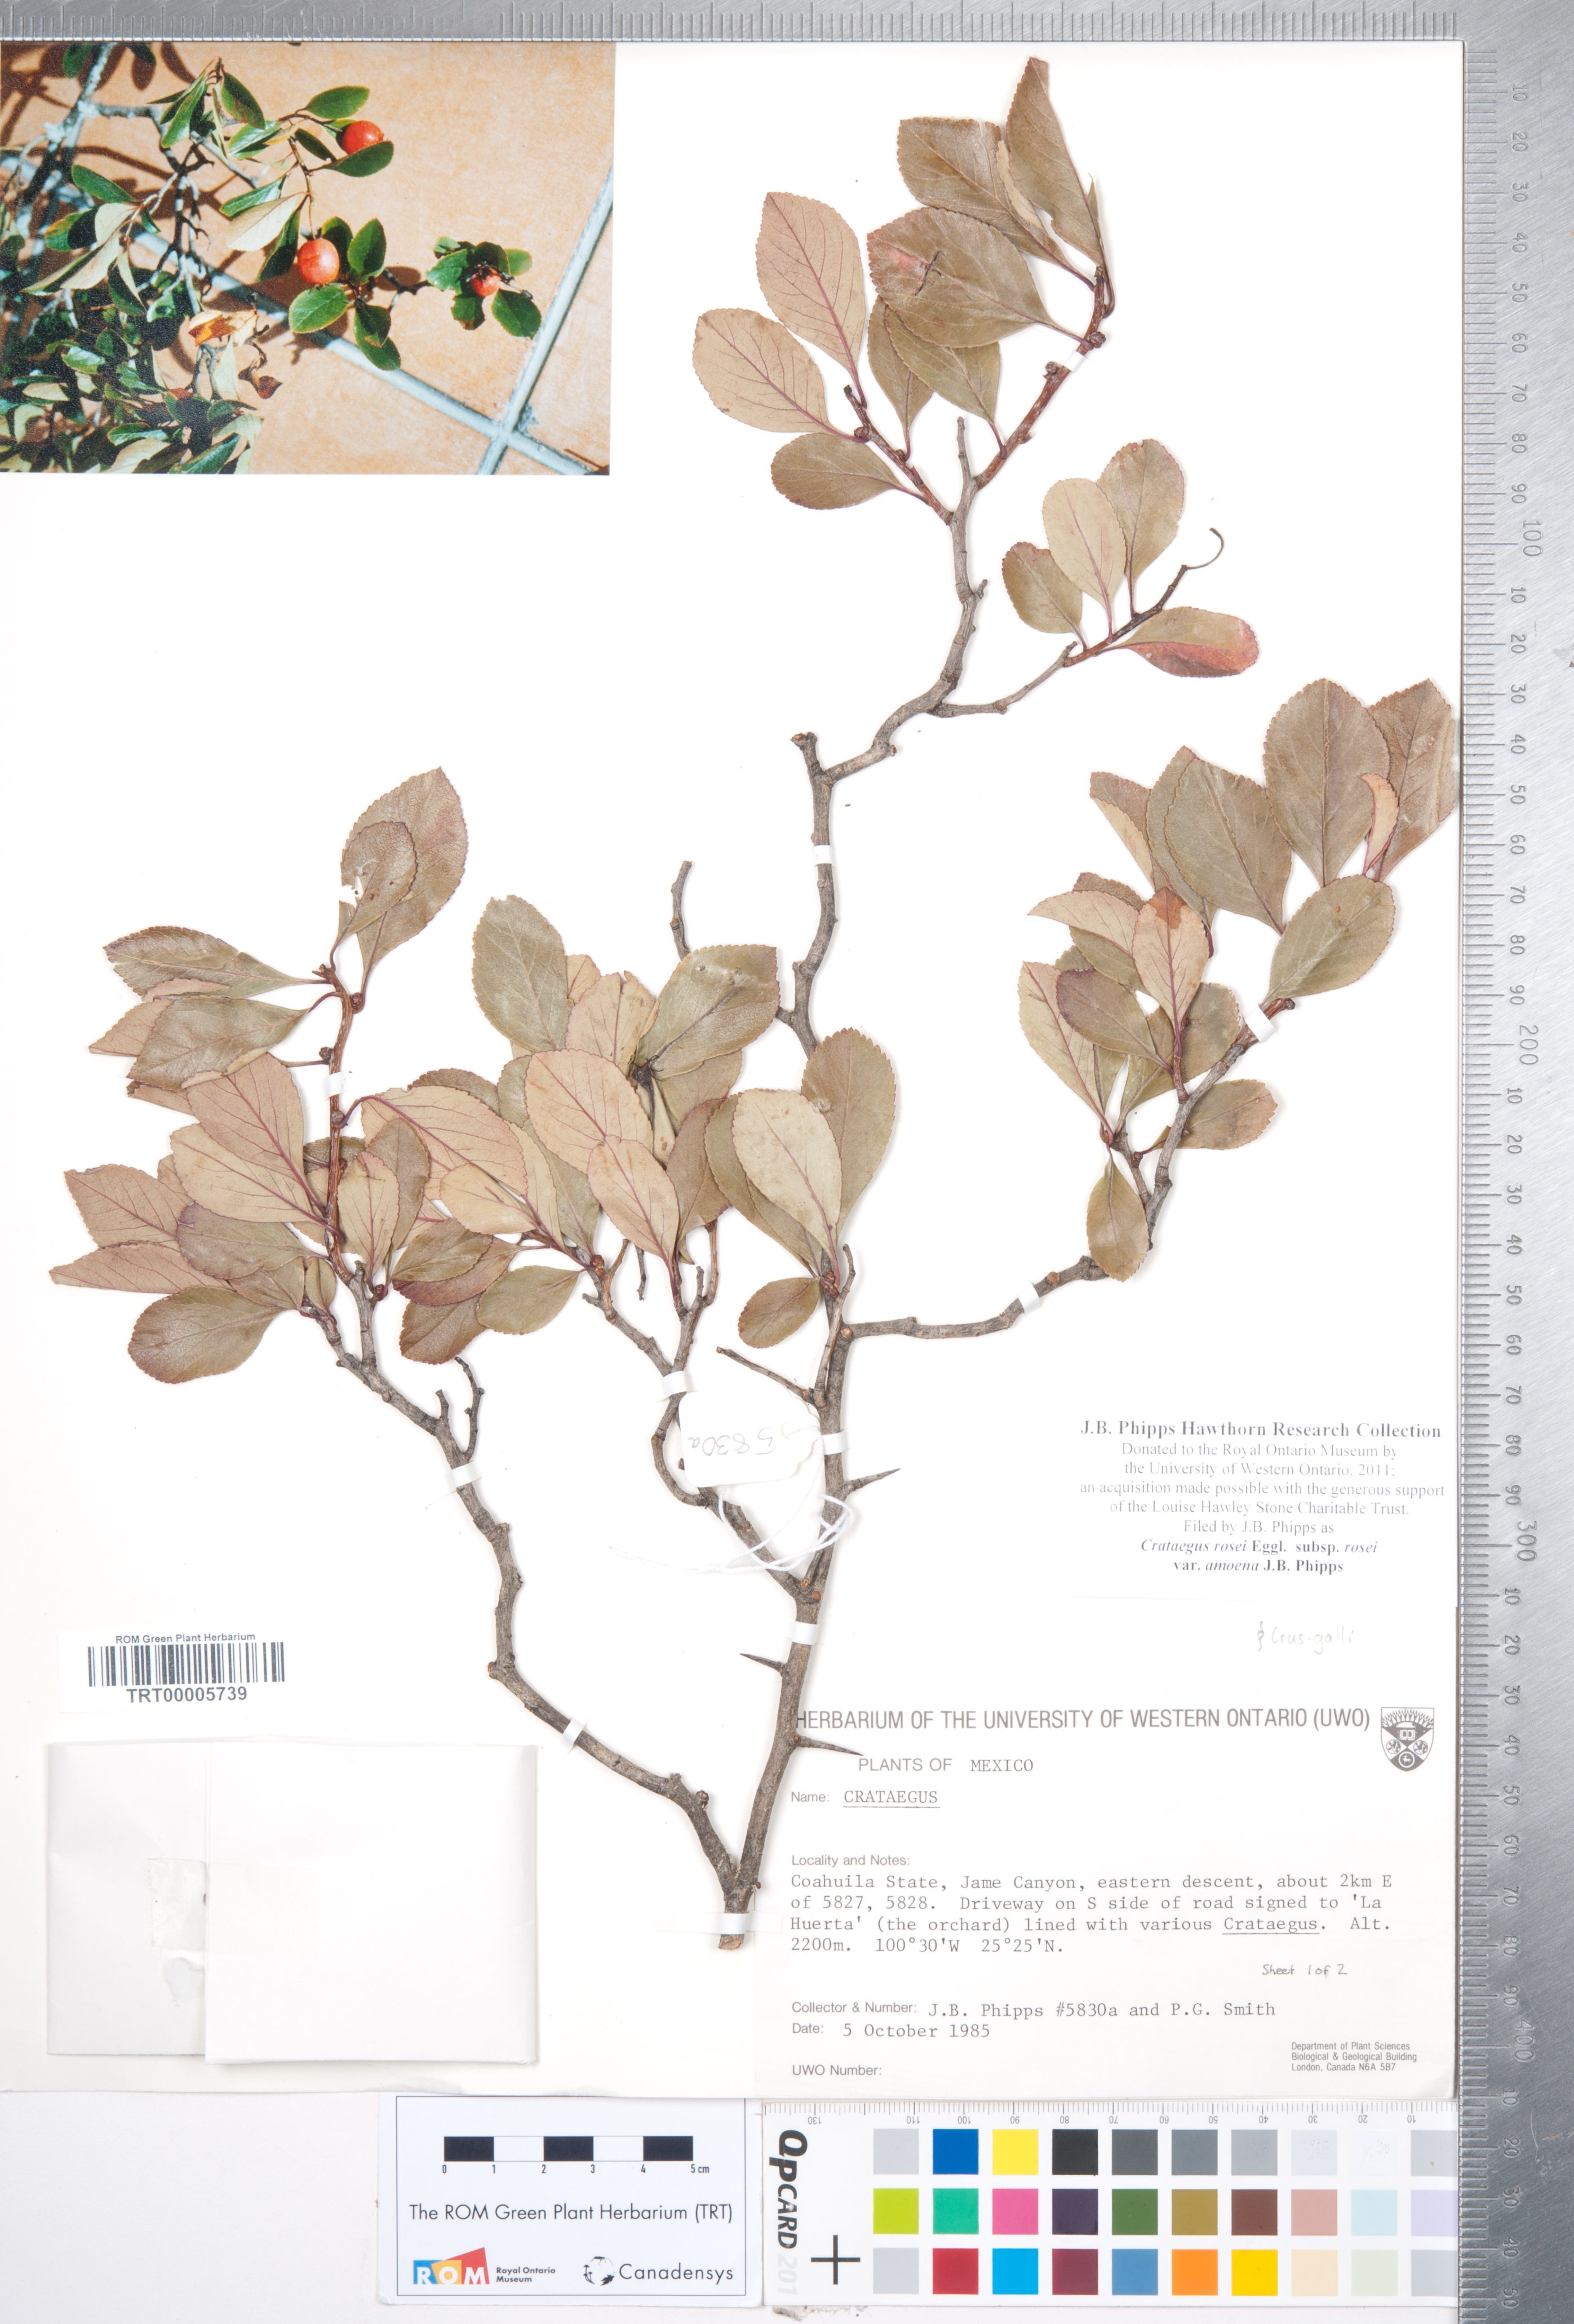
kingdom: Plantae
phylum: Tracheophyta
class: Magnoliopsida
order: Rosales
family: Rosaceae
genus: Crataegus
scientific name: Crataegus rosei
